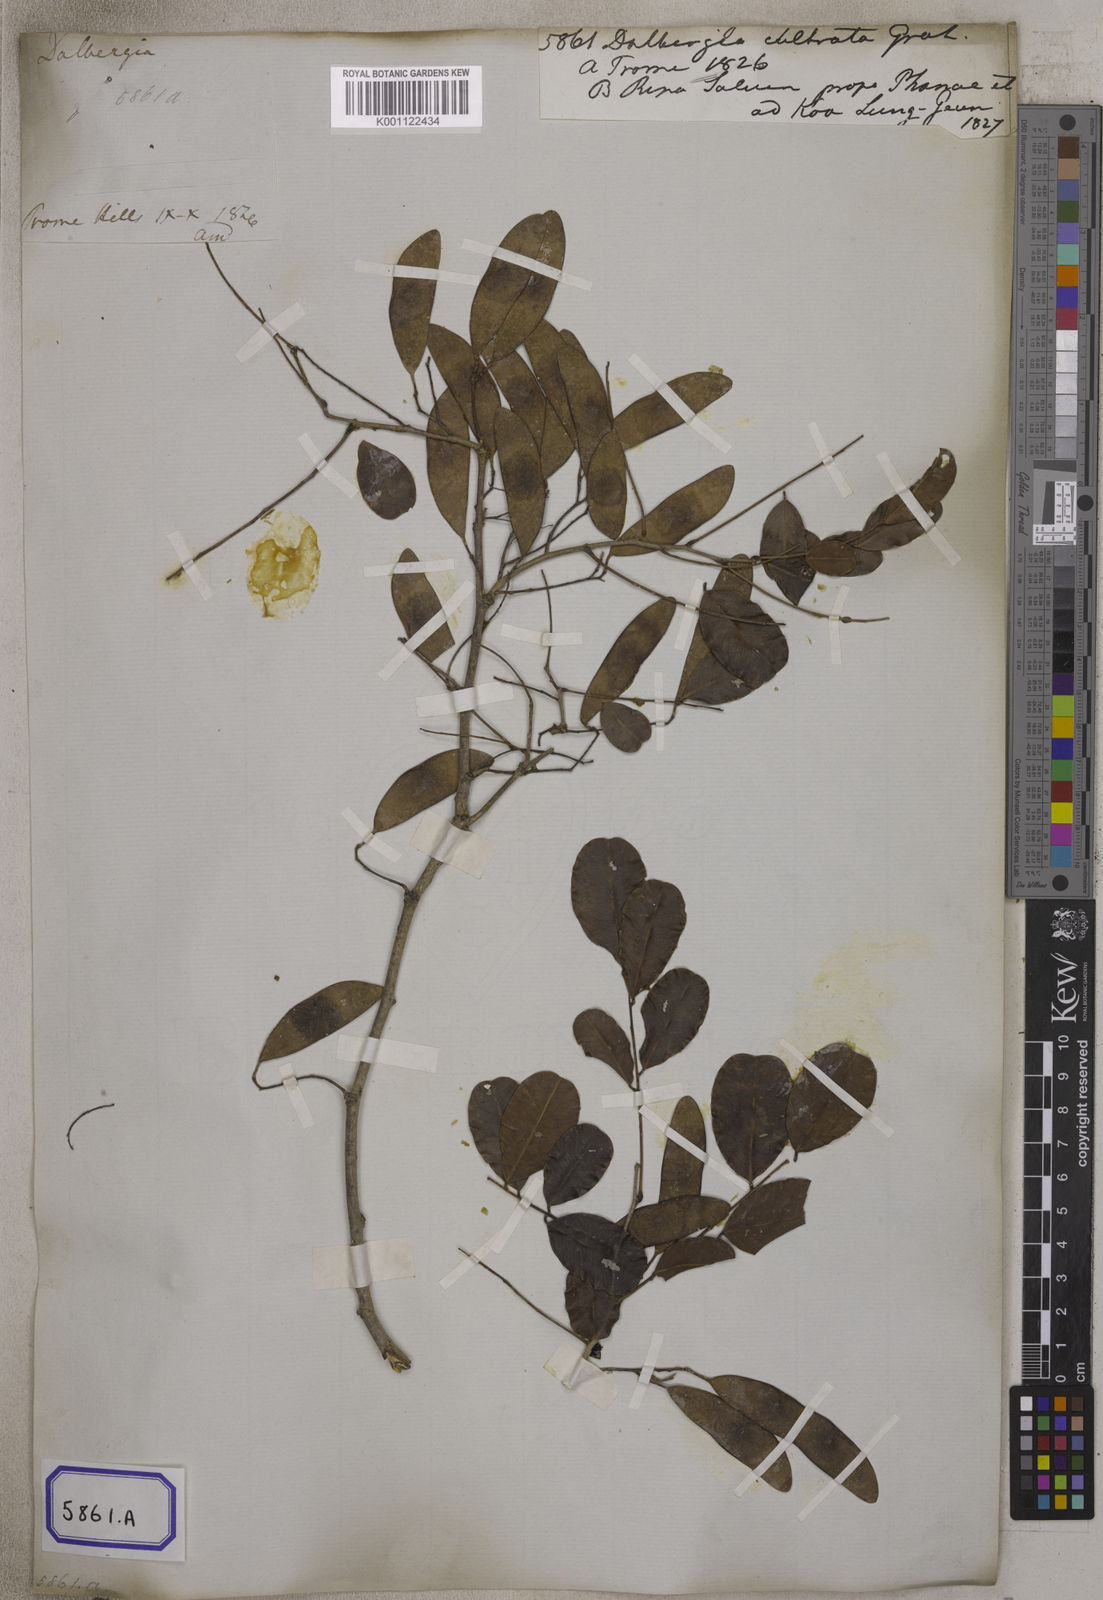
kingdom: Plantae
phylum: Tracheophyta
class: Magnoliopsida
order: Fabales
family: Fabaceae
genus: Dalbergia
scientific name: Dalbergia
